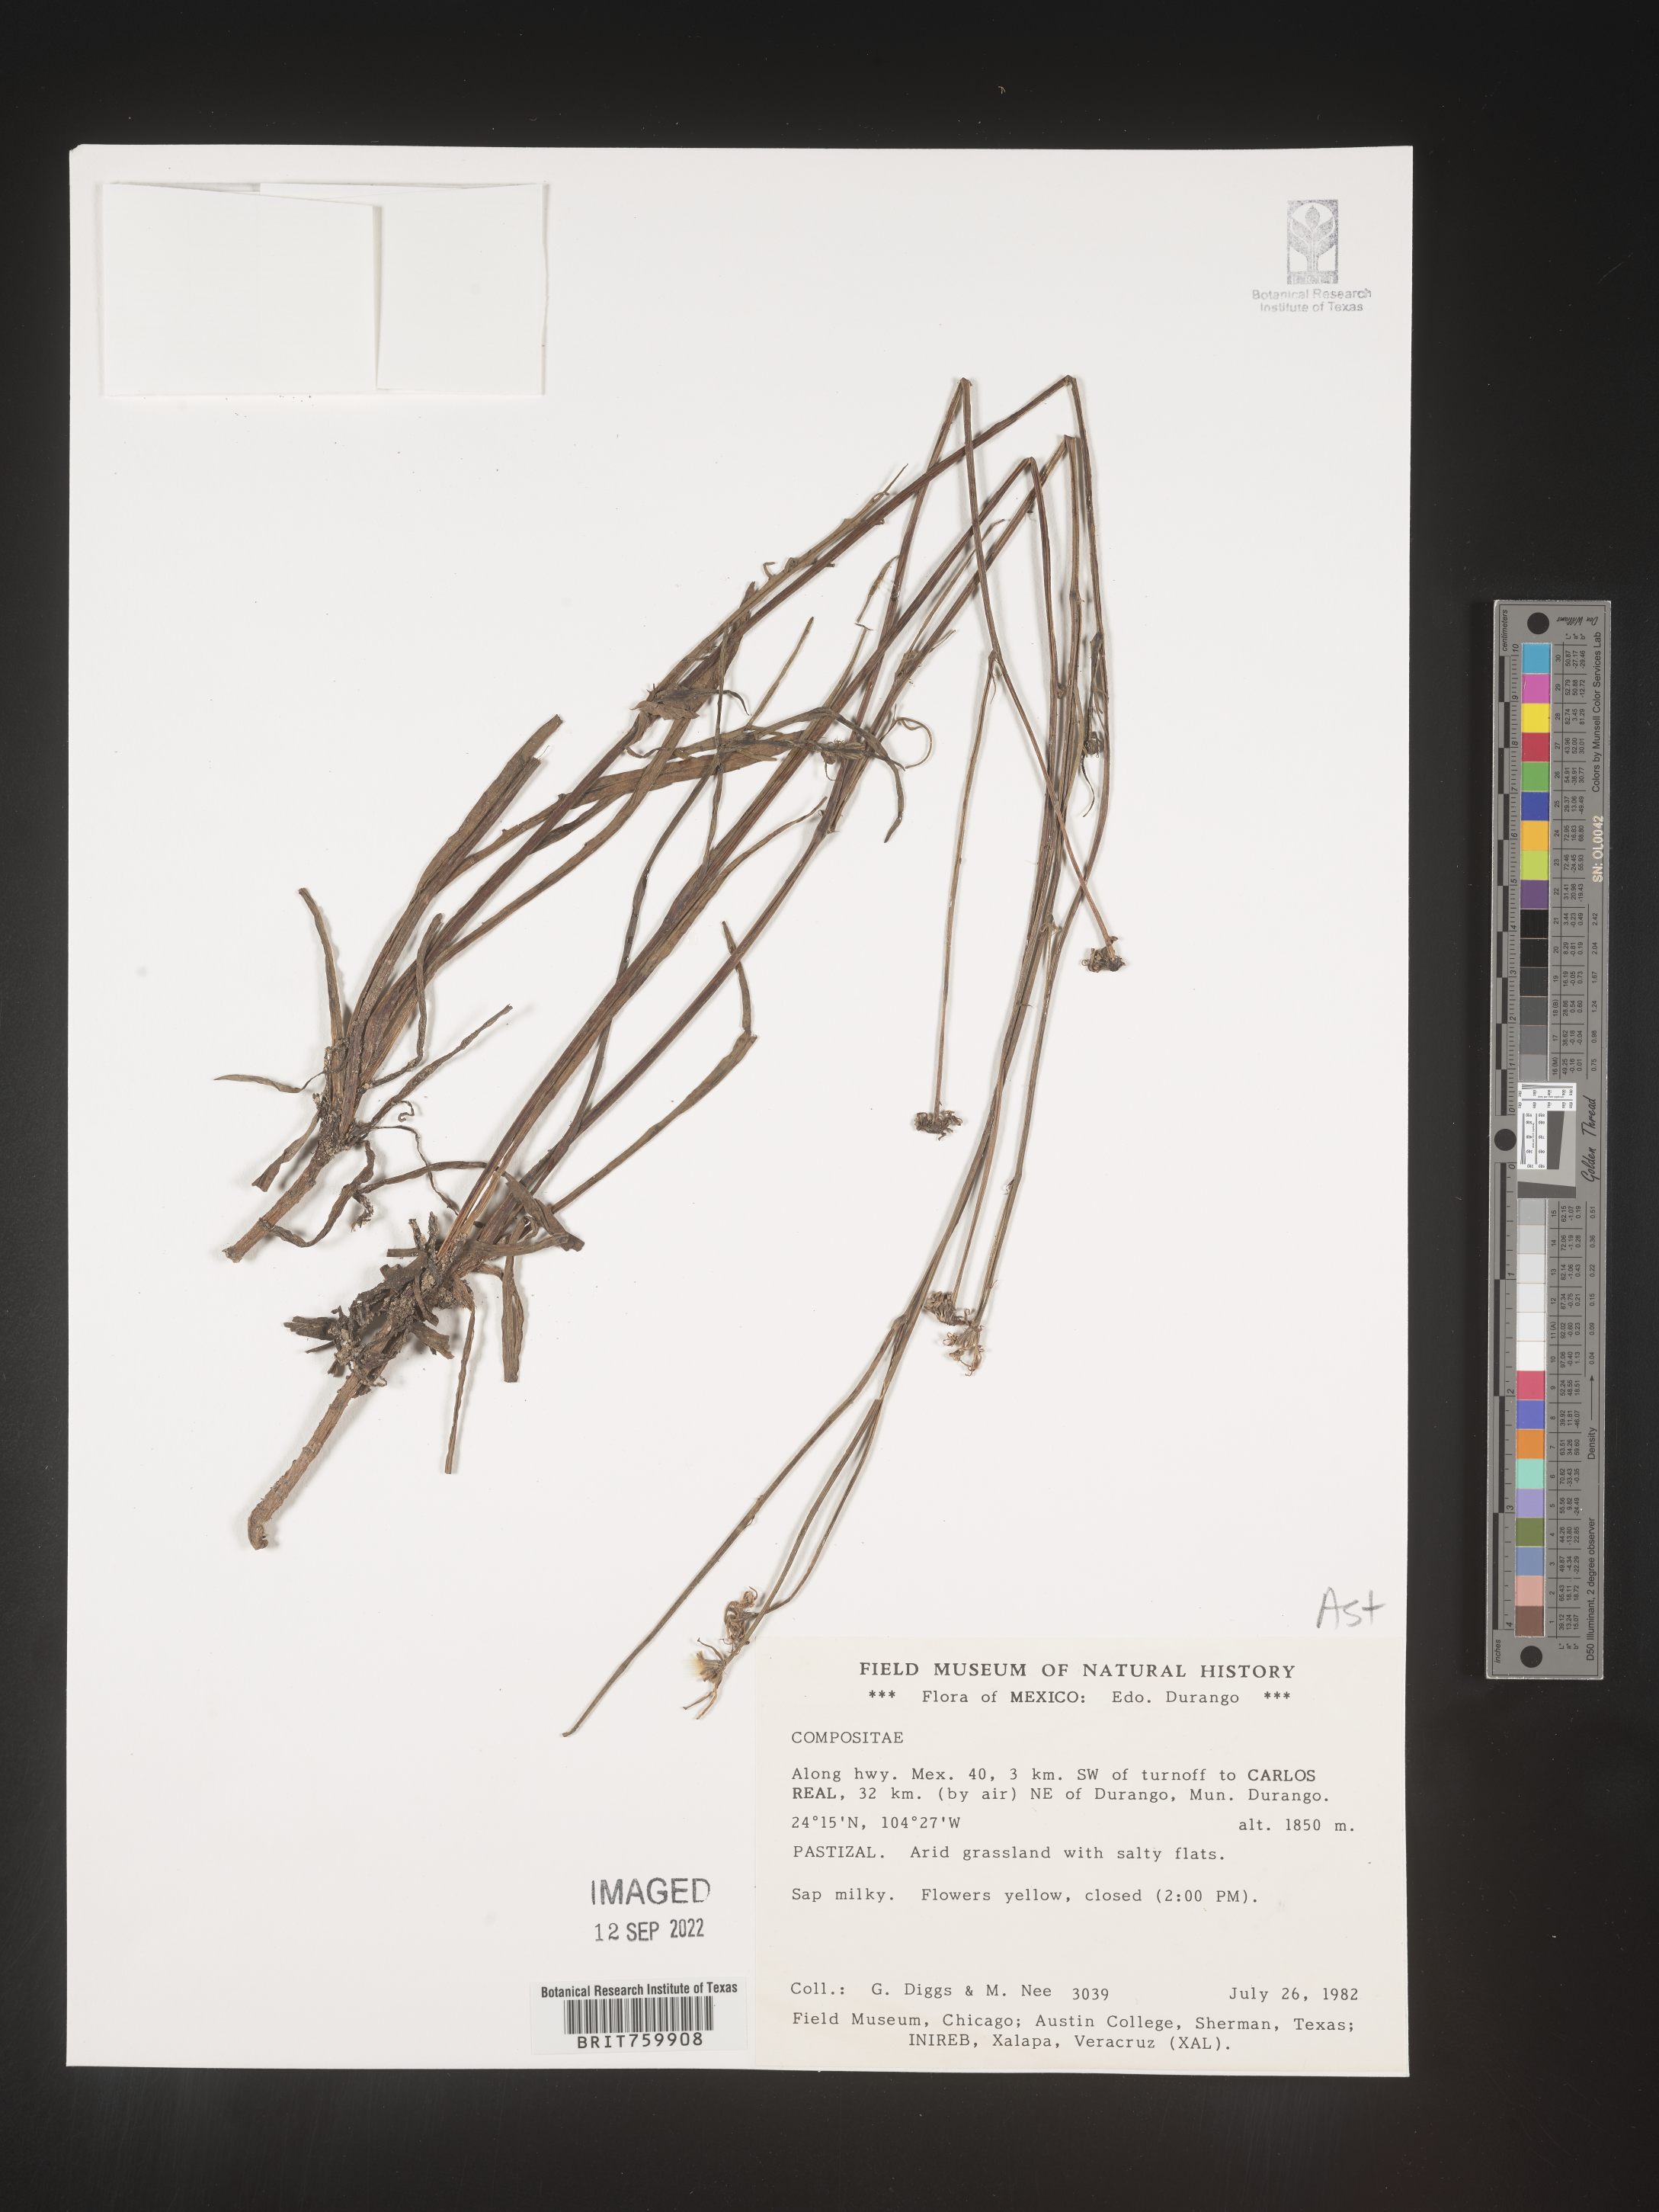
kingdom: Plantae
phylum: Tracheophyta
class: Magnoliopsida
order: Asterales
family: Asteraceae
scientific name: Asteraceae
